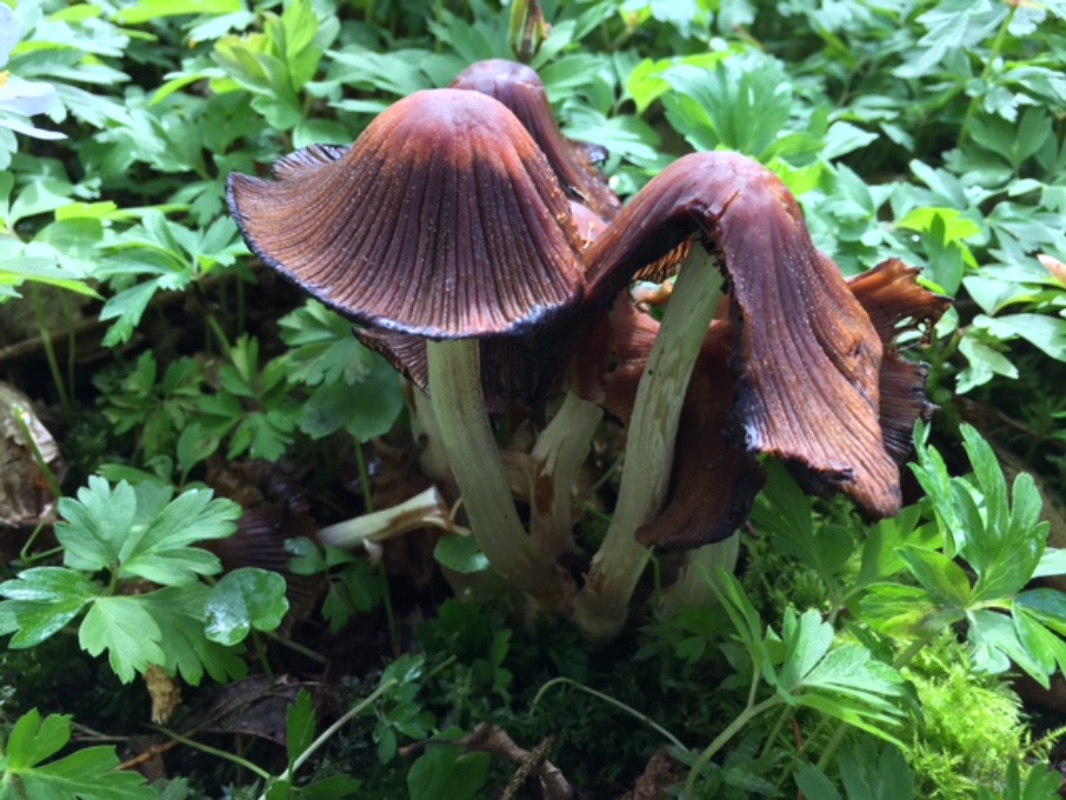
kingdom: Fungi
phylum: Basidiomycota
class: Agaricomycetes
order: Agaricales
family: Psathyrellaceae
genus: Coprinellus
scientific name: Coprinellus
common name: blækhat
